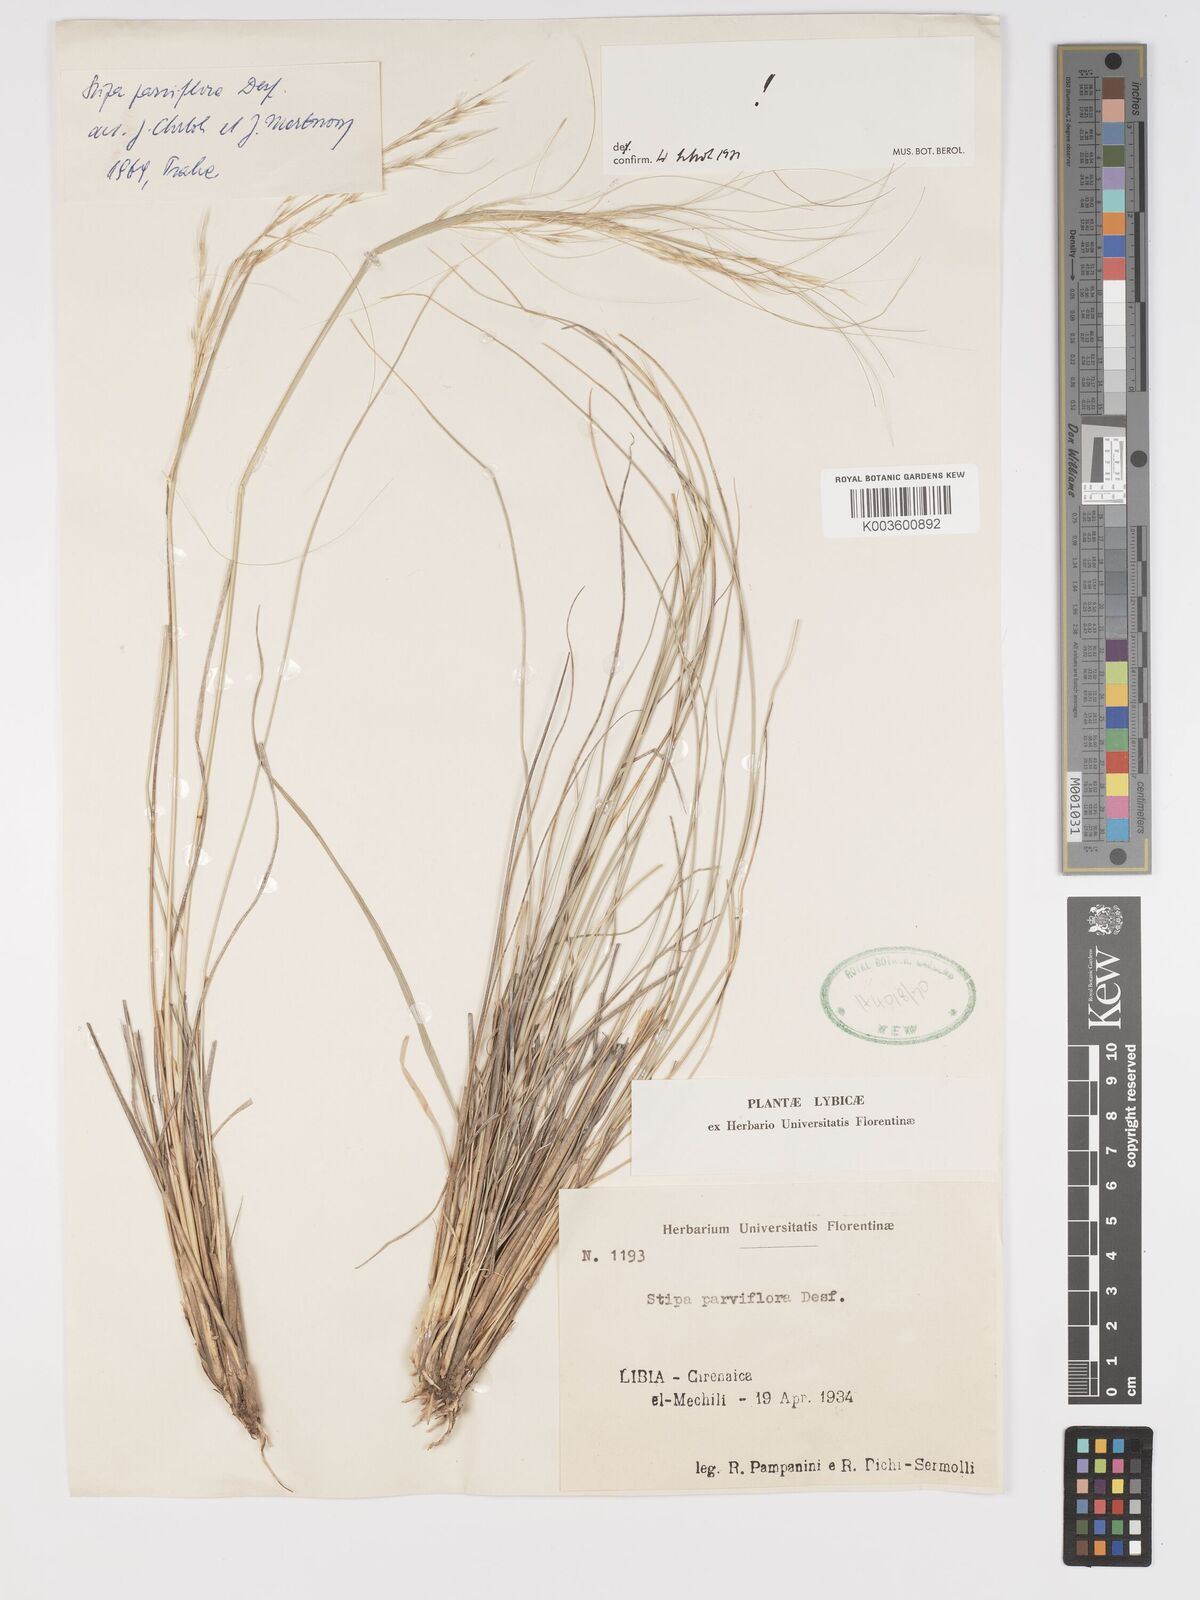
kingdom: Plantae
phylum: Tracheophyta
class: Liliopsida
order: Poales
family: Poaceae
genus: Achnatherum
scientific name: Achnatherum parviflorum
